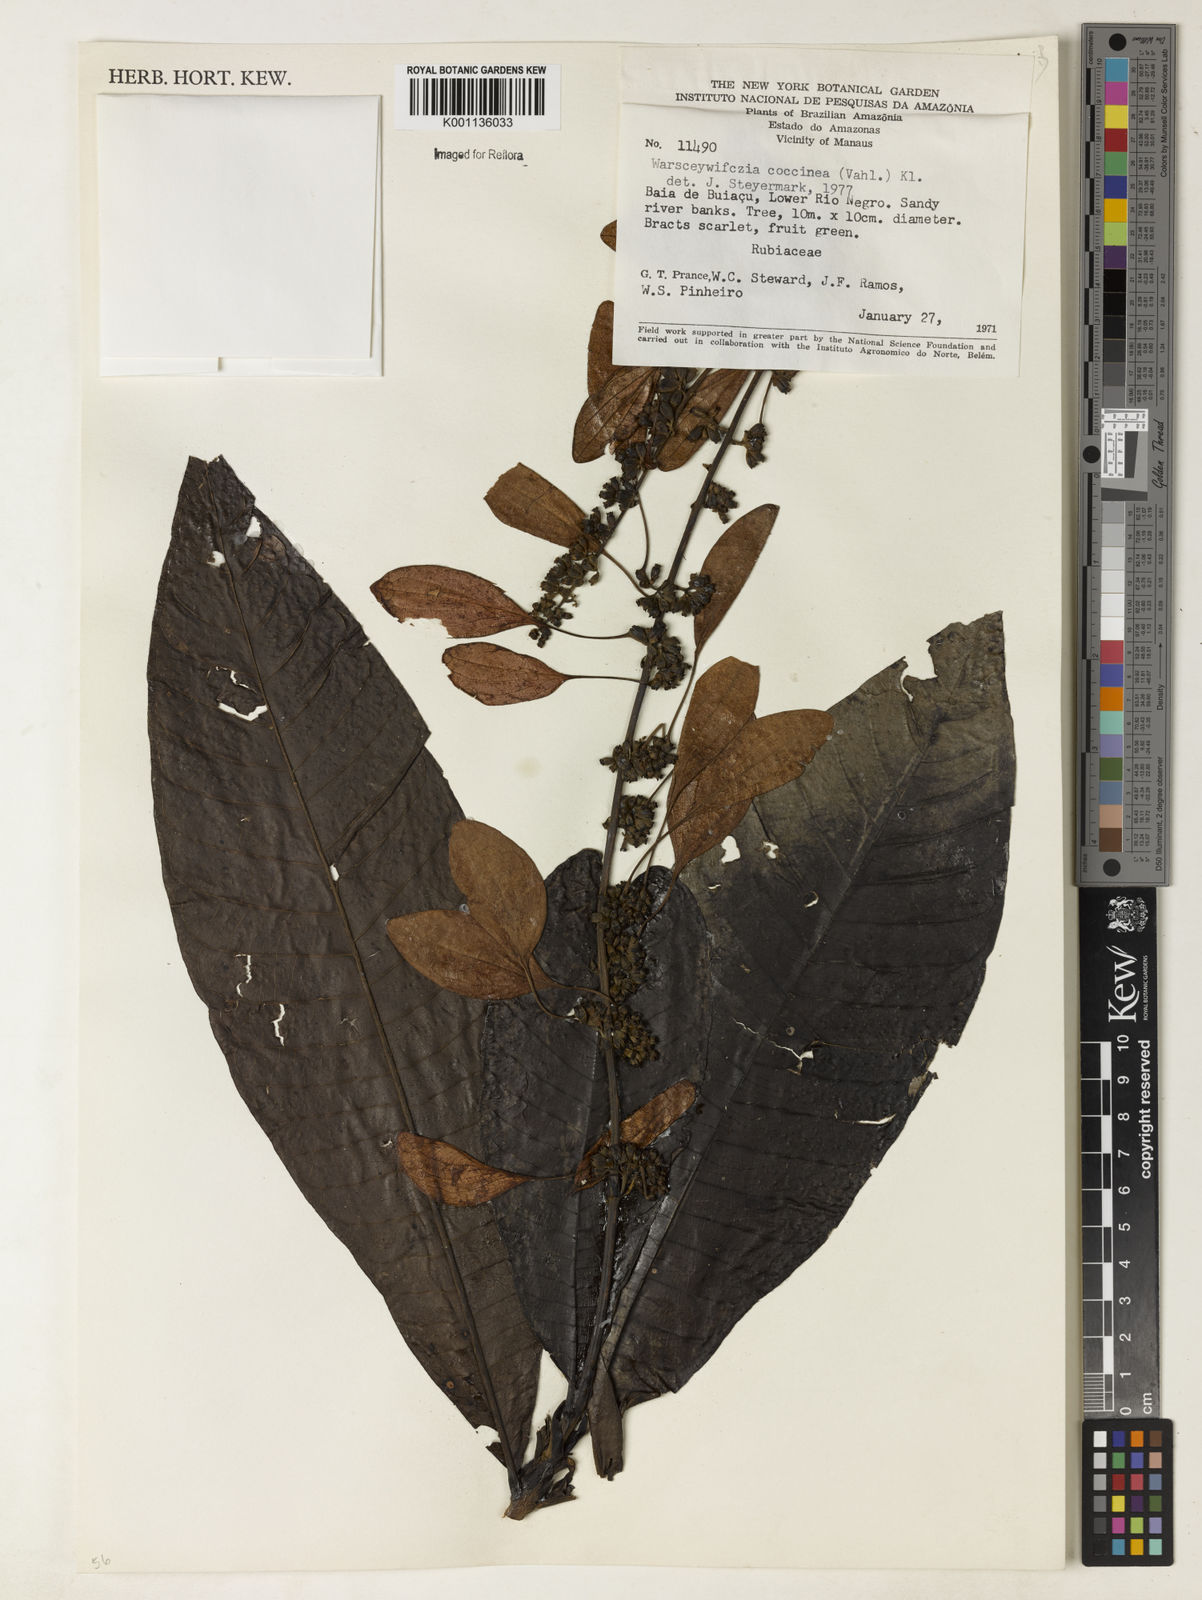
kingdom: Plantae
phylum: Tracheophyta
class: Magnoliopsida
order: Gentianales
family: Rubiaceae
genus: Warszewiczia
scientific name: Warszewiczia coccinea
